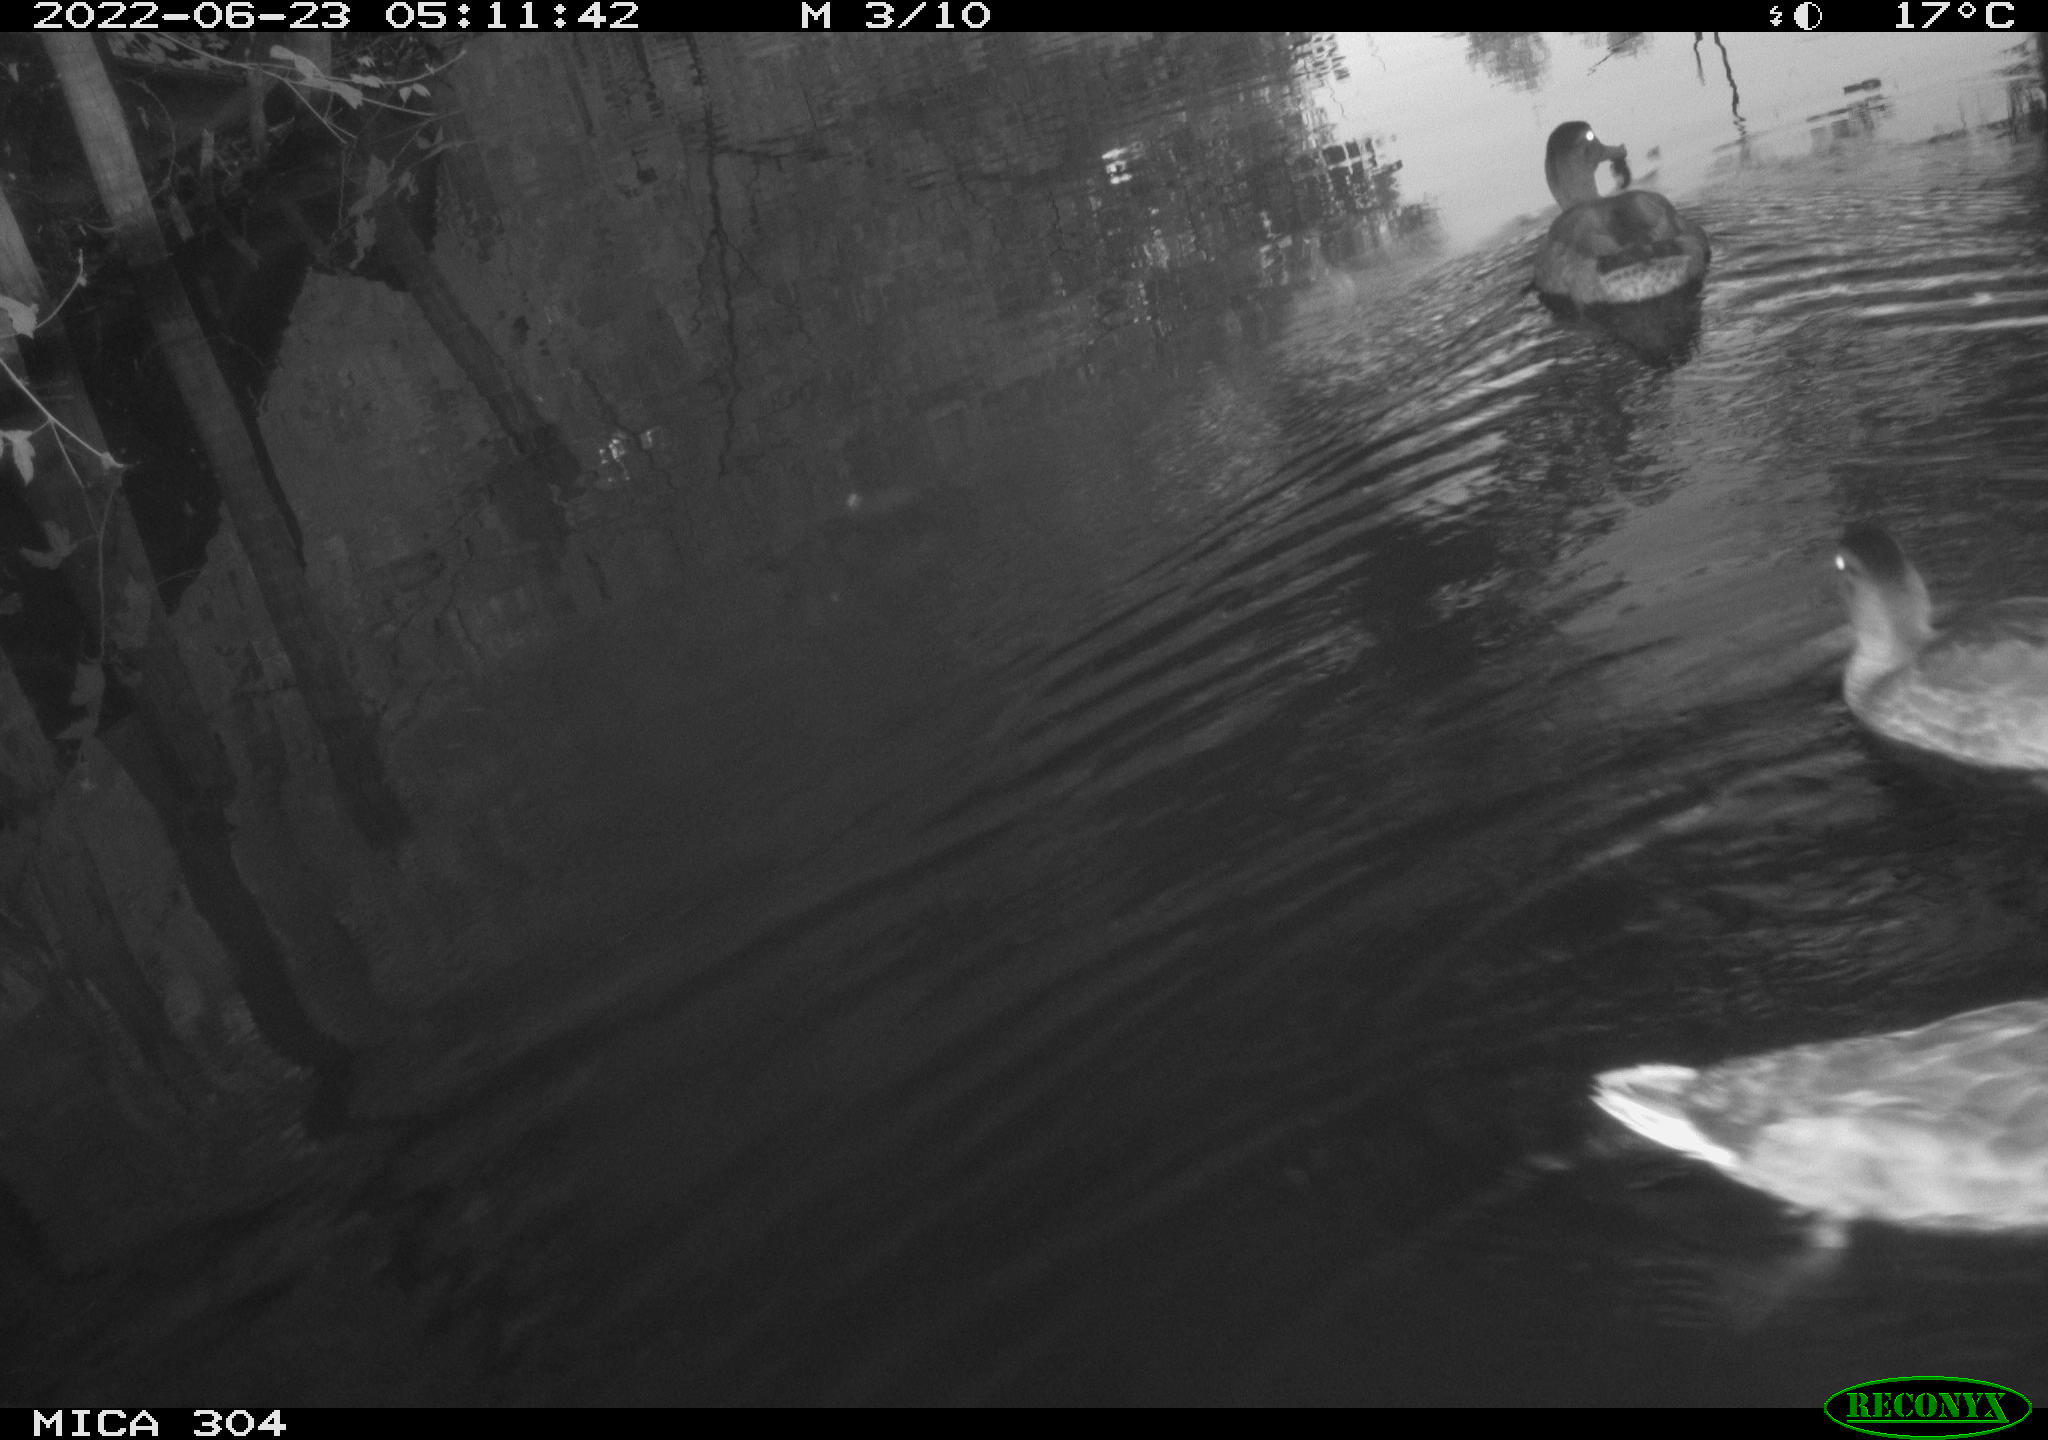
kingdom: Animalia
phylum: Chordata
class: Aves
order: Anseriformes
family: Anatidae
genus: Mareca
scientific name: Mareca strepera
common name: Gadwall
